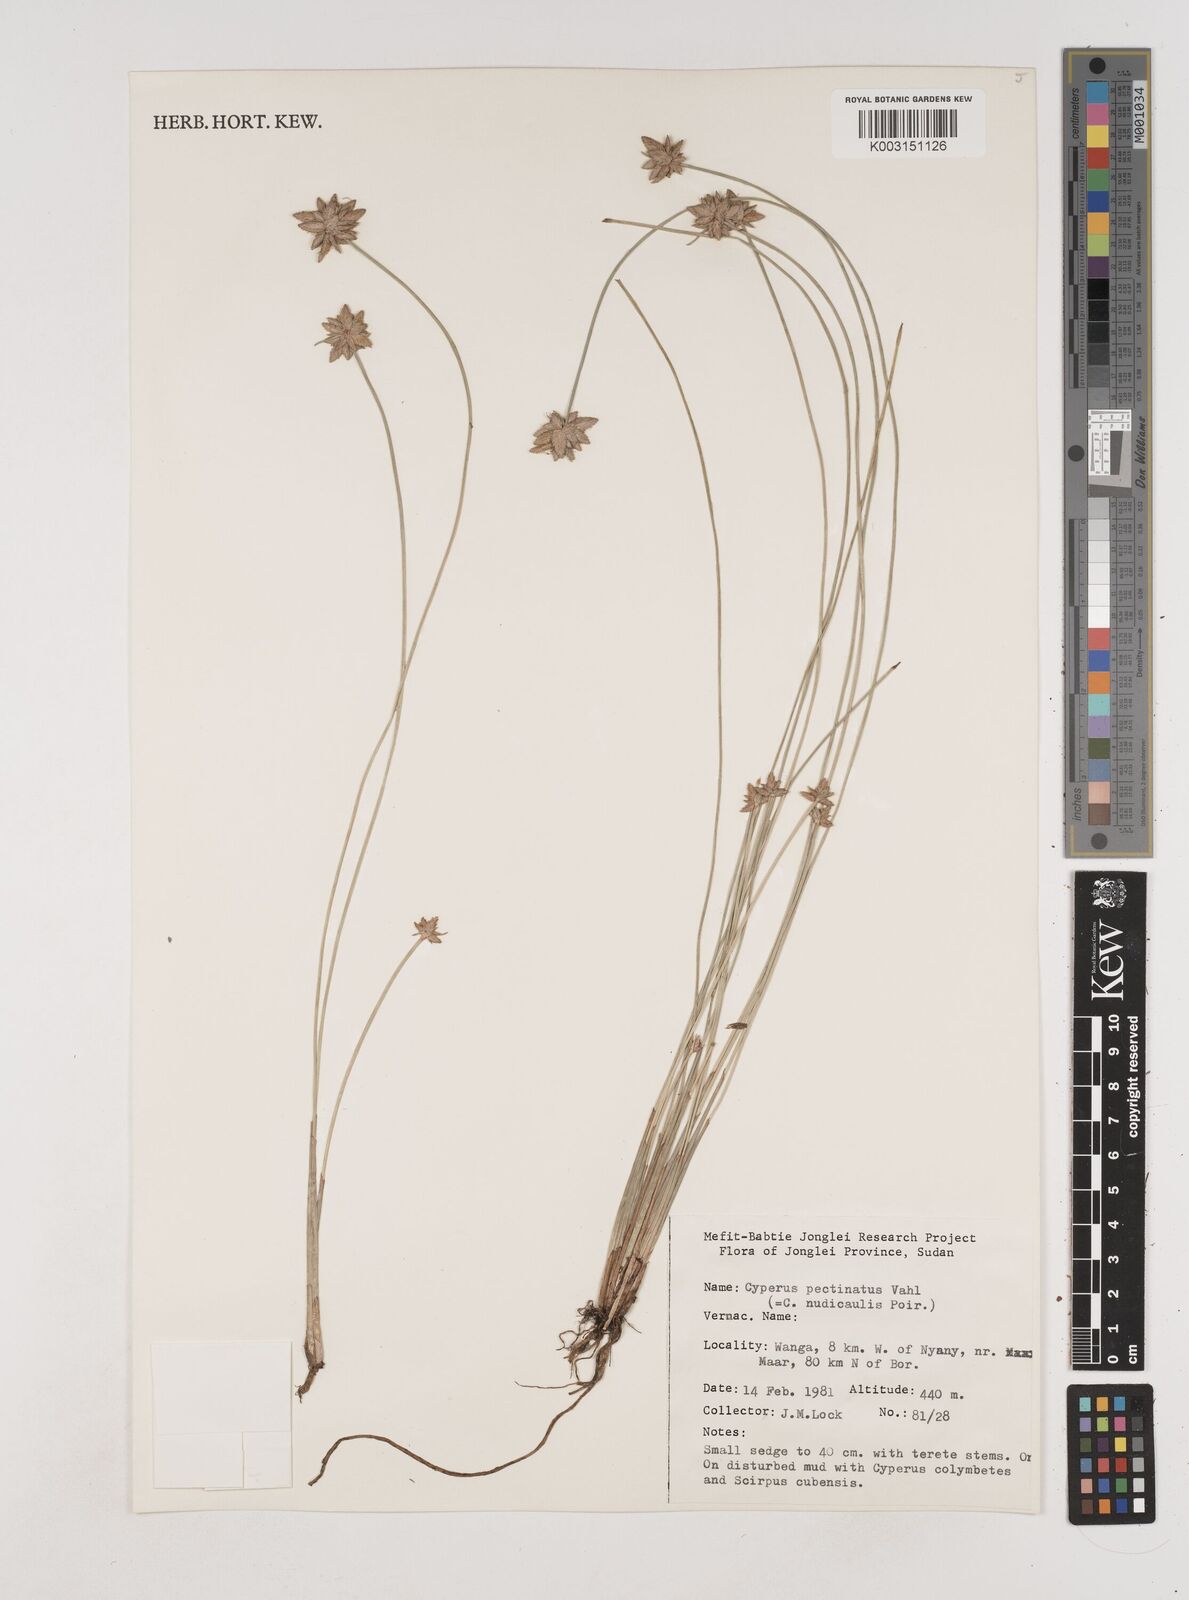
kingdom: Plantae
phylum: Tracheophyta
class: Liliopsida
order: Poales
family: Cyperaceae
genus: Cyperus
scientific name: Cyperus pectinatus
